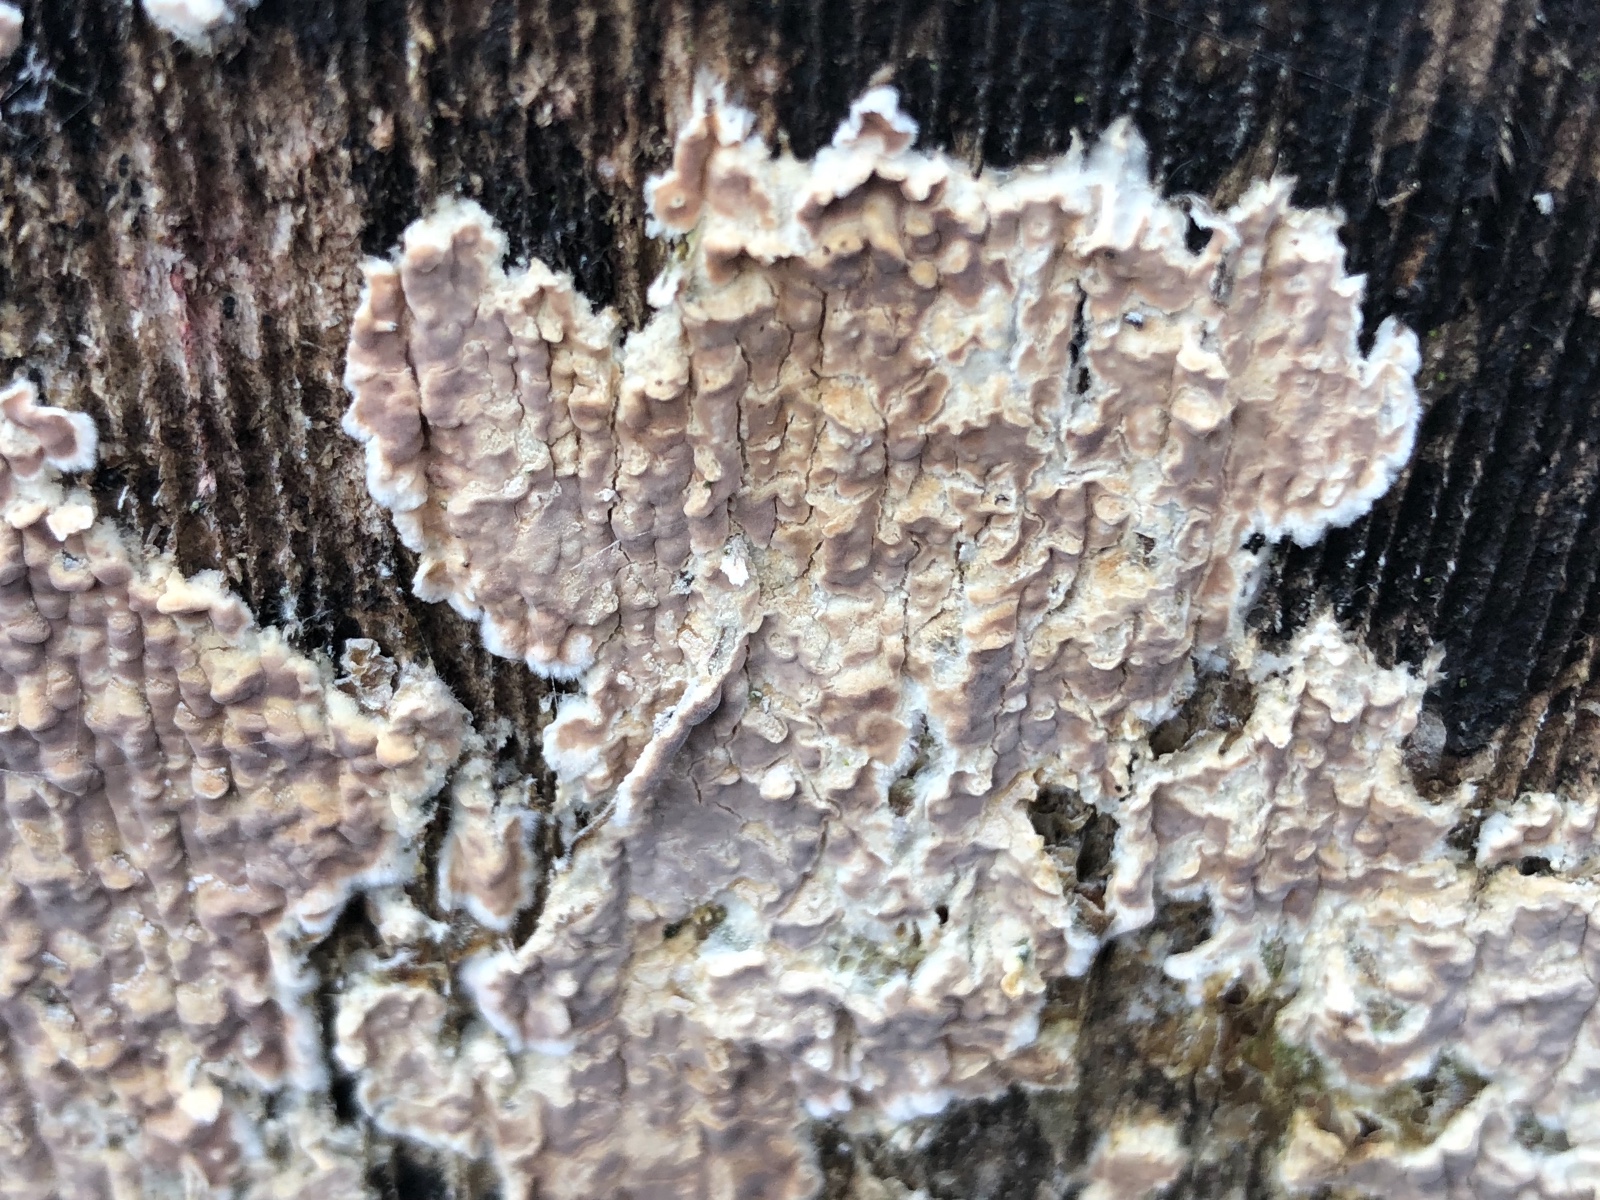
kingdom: Fungi
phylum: Basidiomycota
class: Agaricomycetes
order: Agaricales
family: Physalacriaceae
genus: Cylindrobasidium
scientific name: Cylindrobasidium evolvens
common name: sprækkehinde
